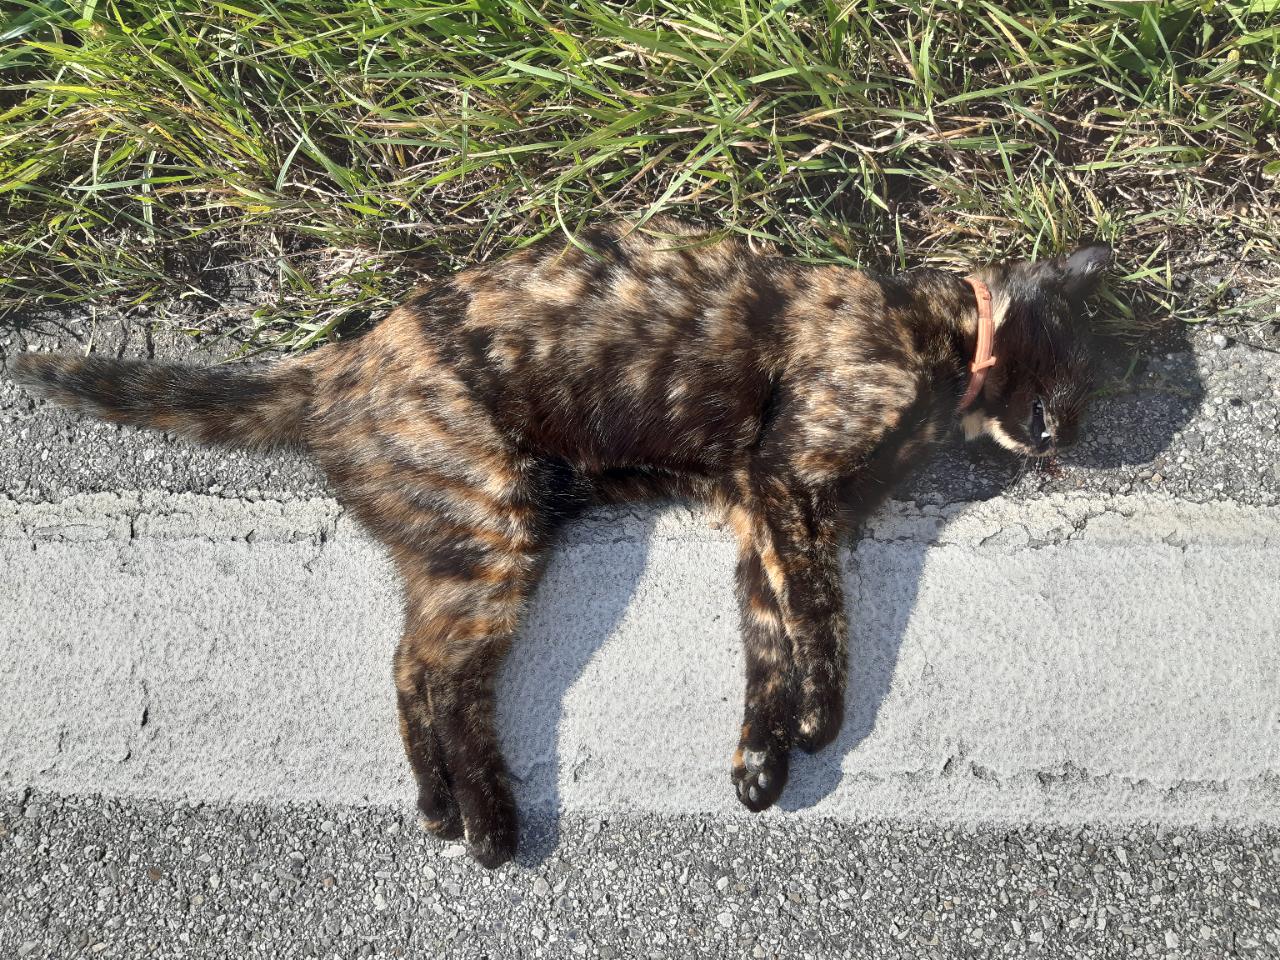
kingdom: Animalia
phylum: Chordata
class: Mammalia
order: Carnivora
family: Felidae
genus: Felis
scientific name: Felis catus
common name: Domestic cat
